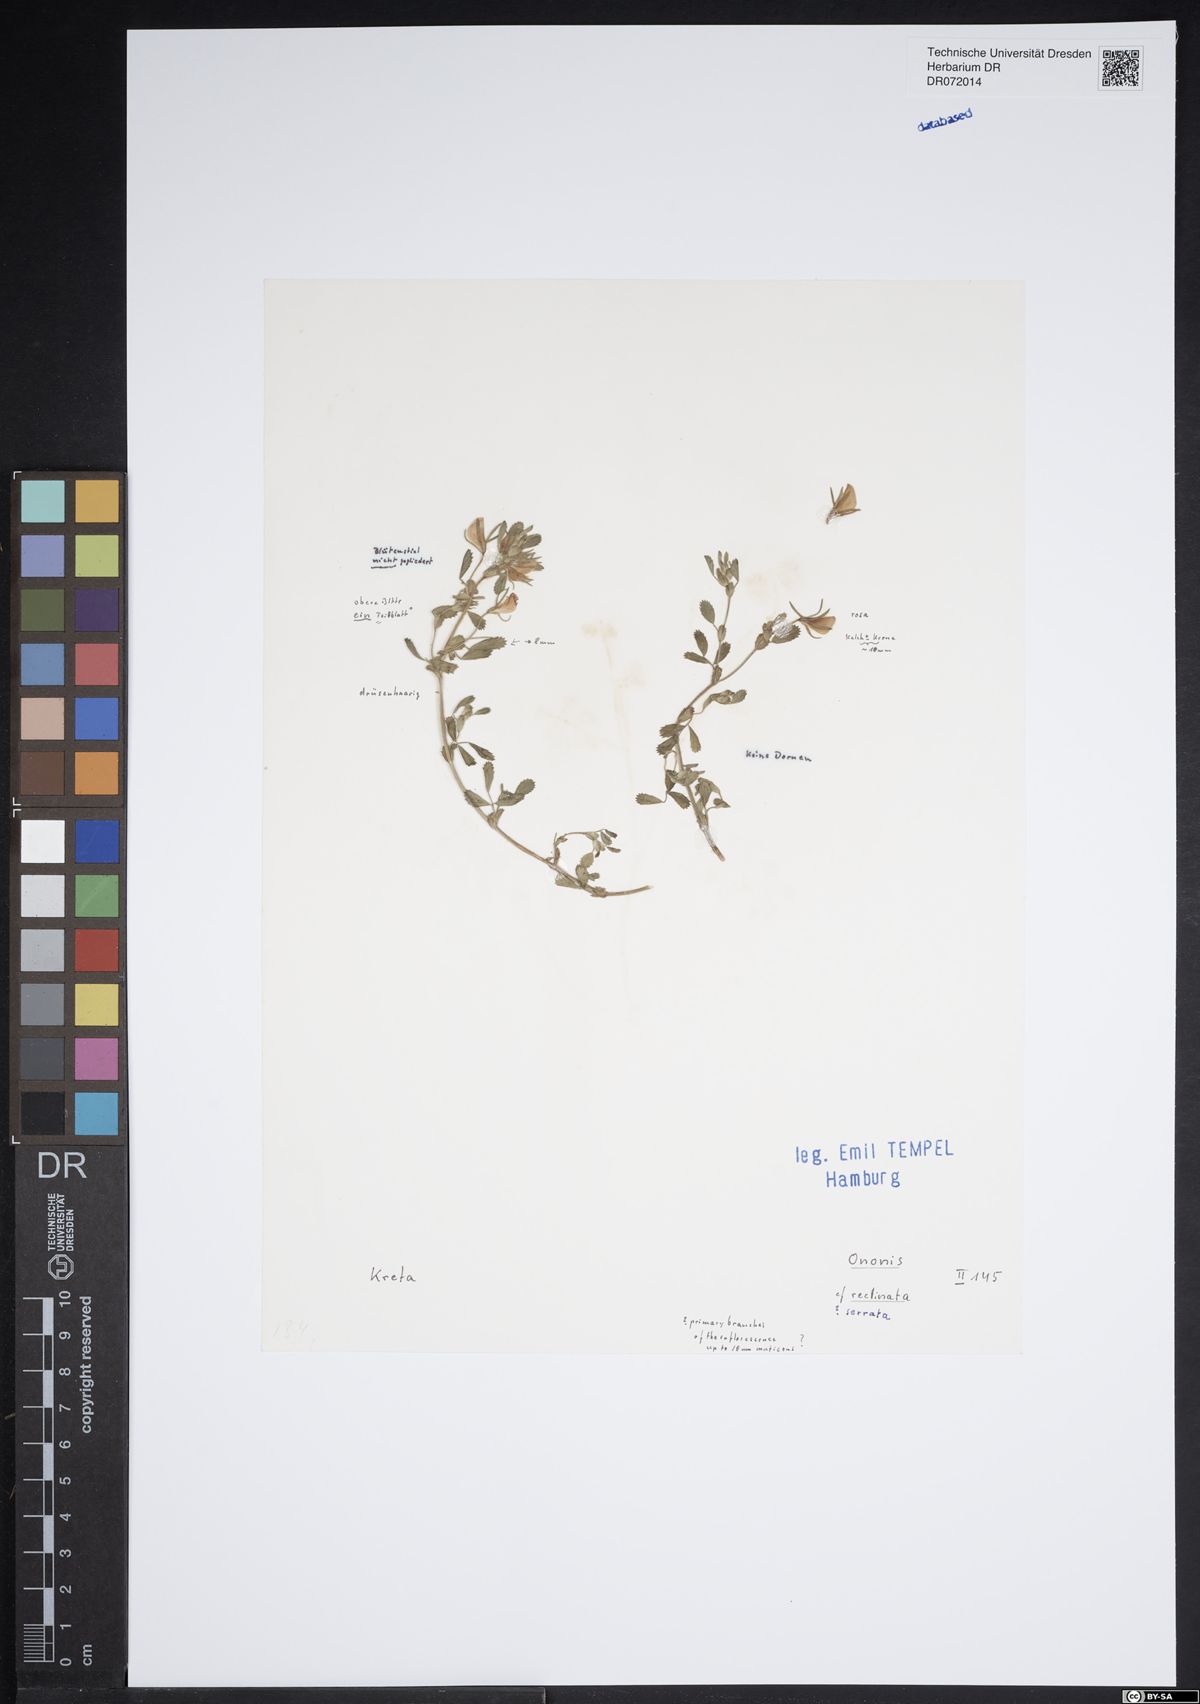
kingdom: Plantae
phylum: Tracheophyta
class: Magnoliopsida
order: Fabales
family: Fabaceae
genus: Ononis
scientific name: Ononis reclinata
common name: Small restharrow
